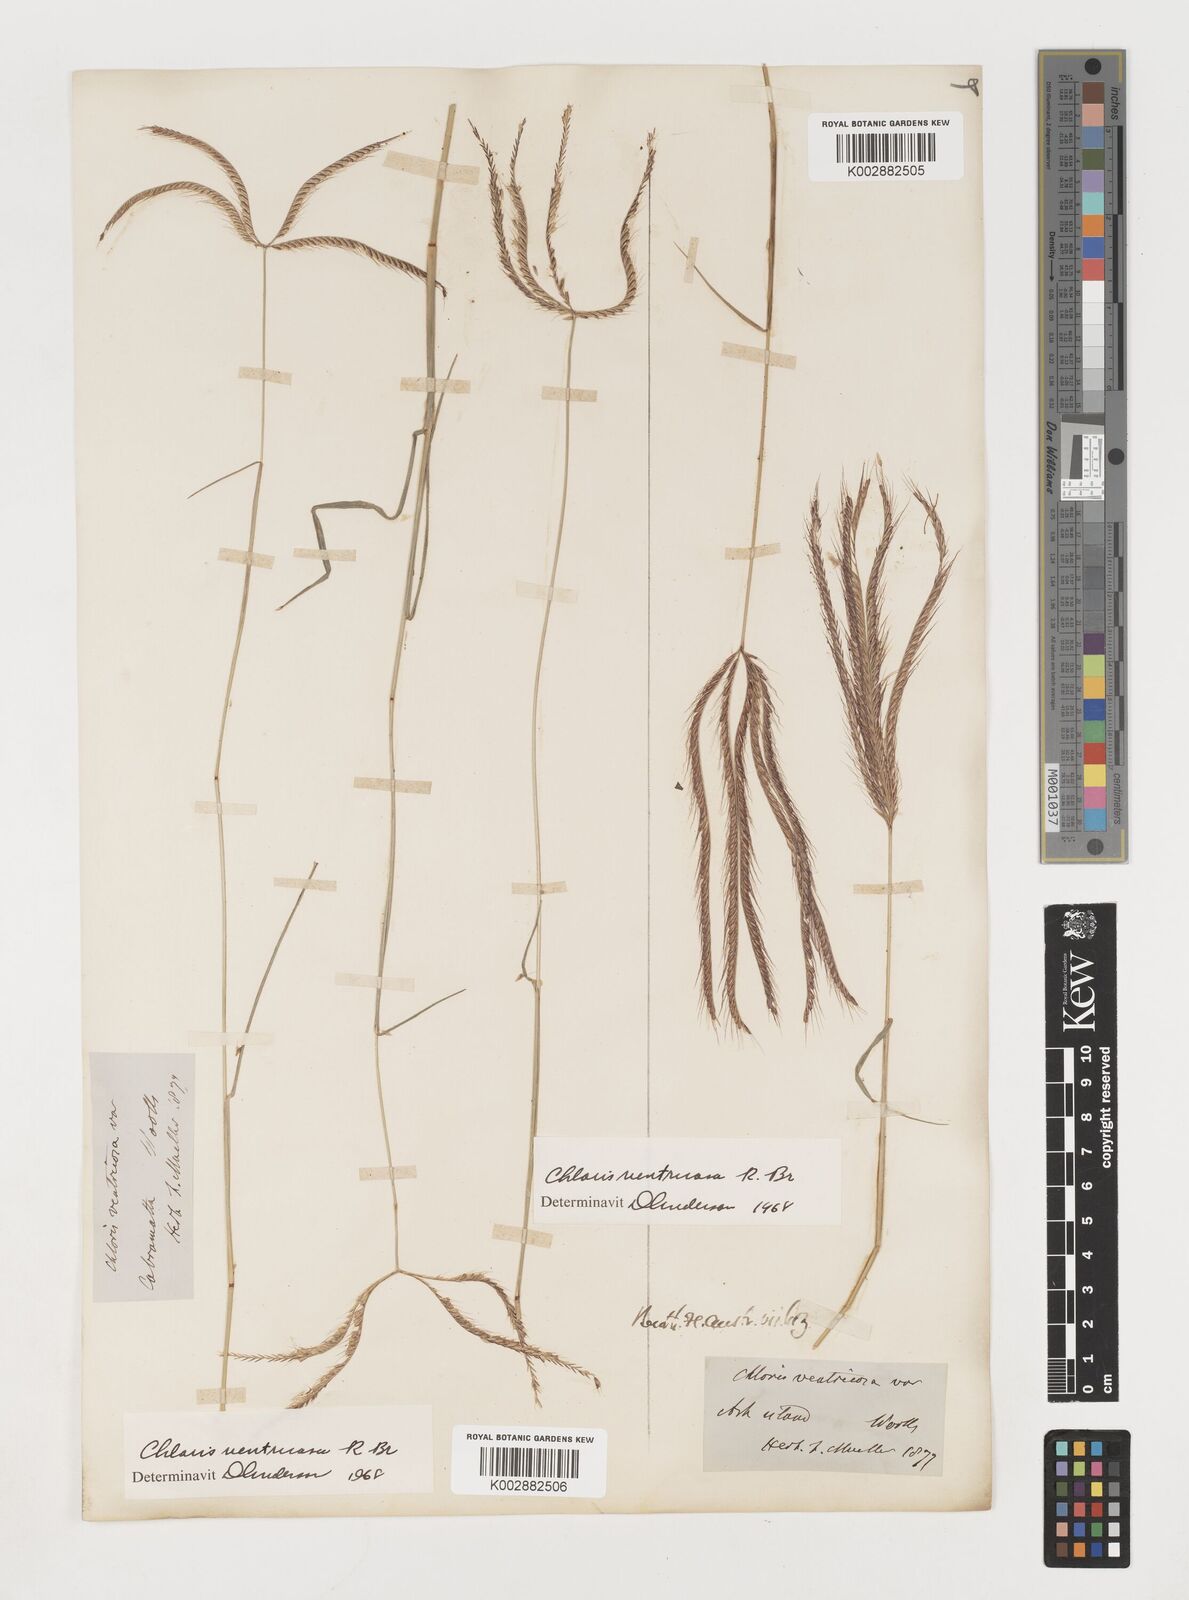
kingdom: Plantae
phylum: Tracheophyta
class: Liliopsida
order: Poales
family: Poaceae
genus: Chloris
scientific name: Chloris ventricosa
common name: Australian windmill grass
